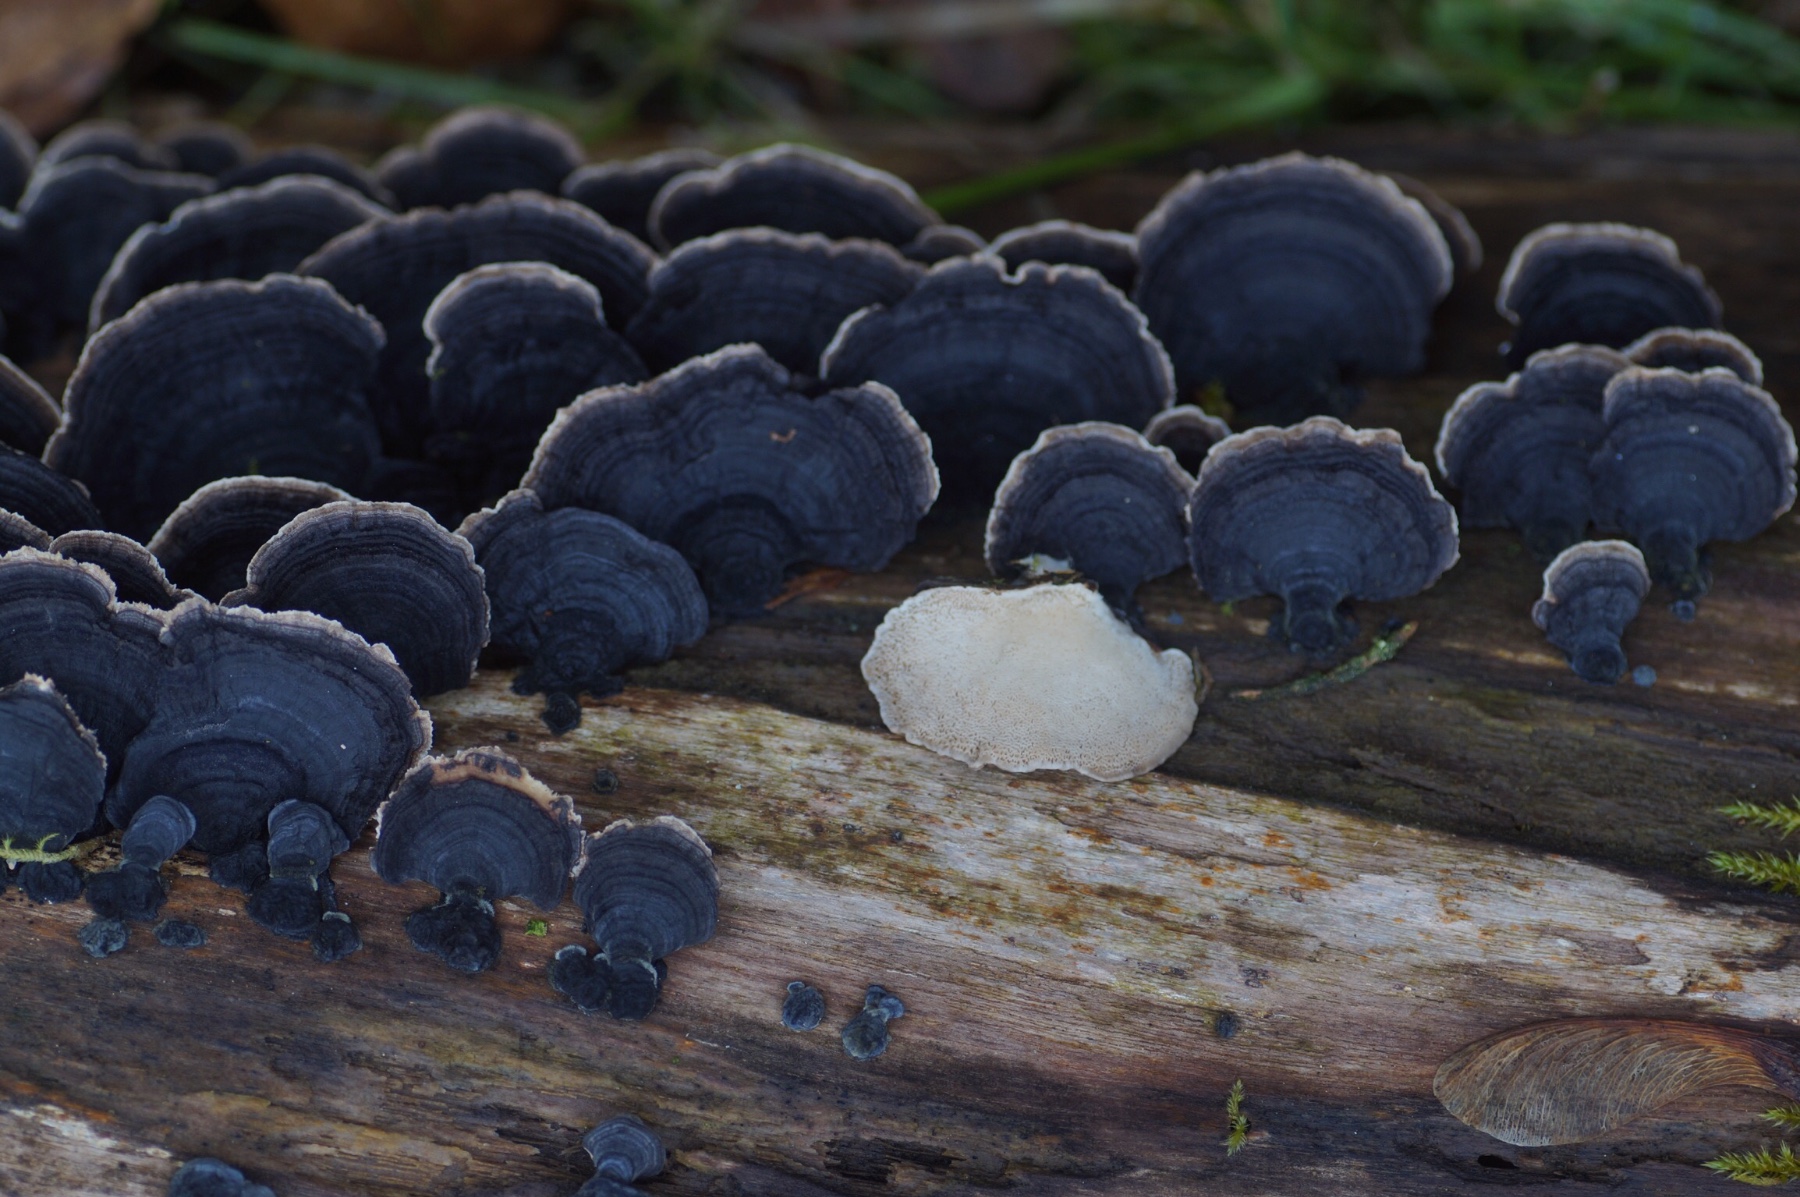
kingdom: Fungi
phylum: Basidiomycota
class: Agaricomycetes
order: Polyporales
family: Polyporaceae
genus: Trametes
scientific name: Trametes versicolor
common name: broget læderporesvamp
